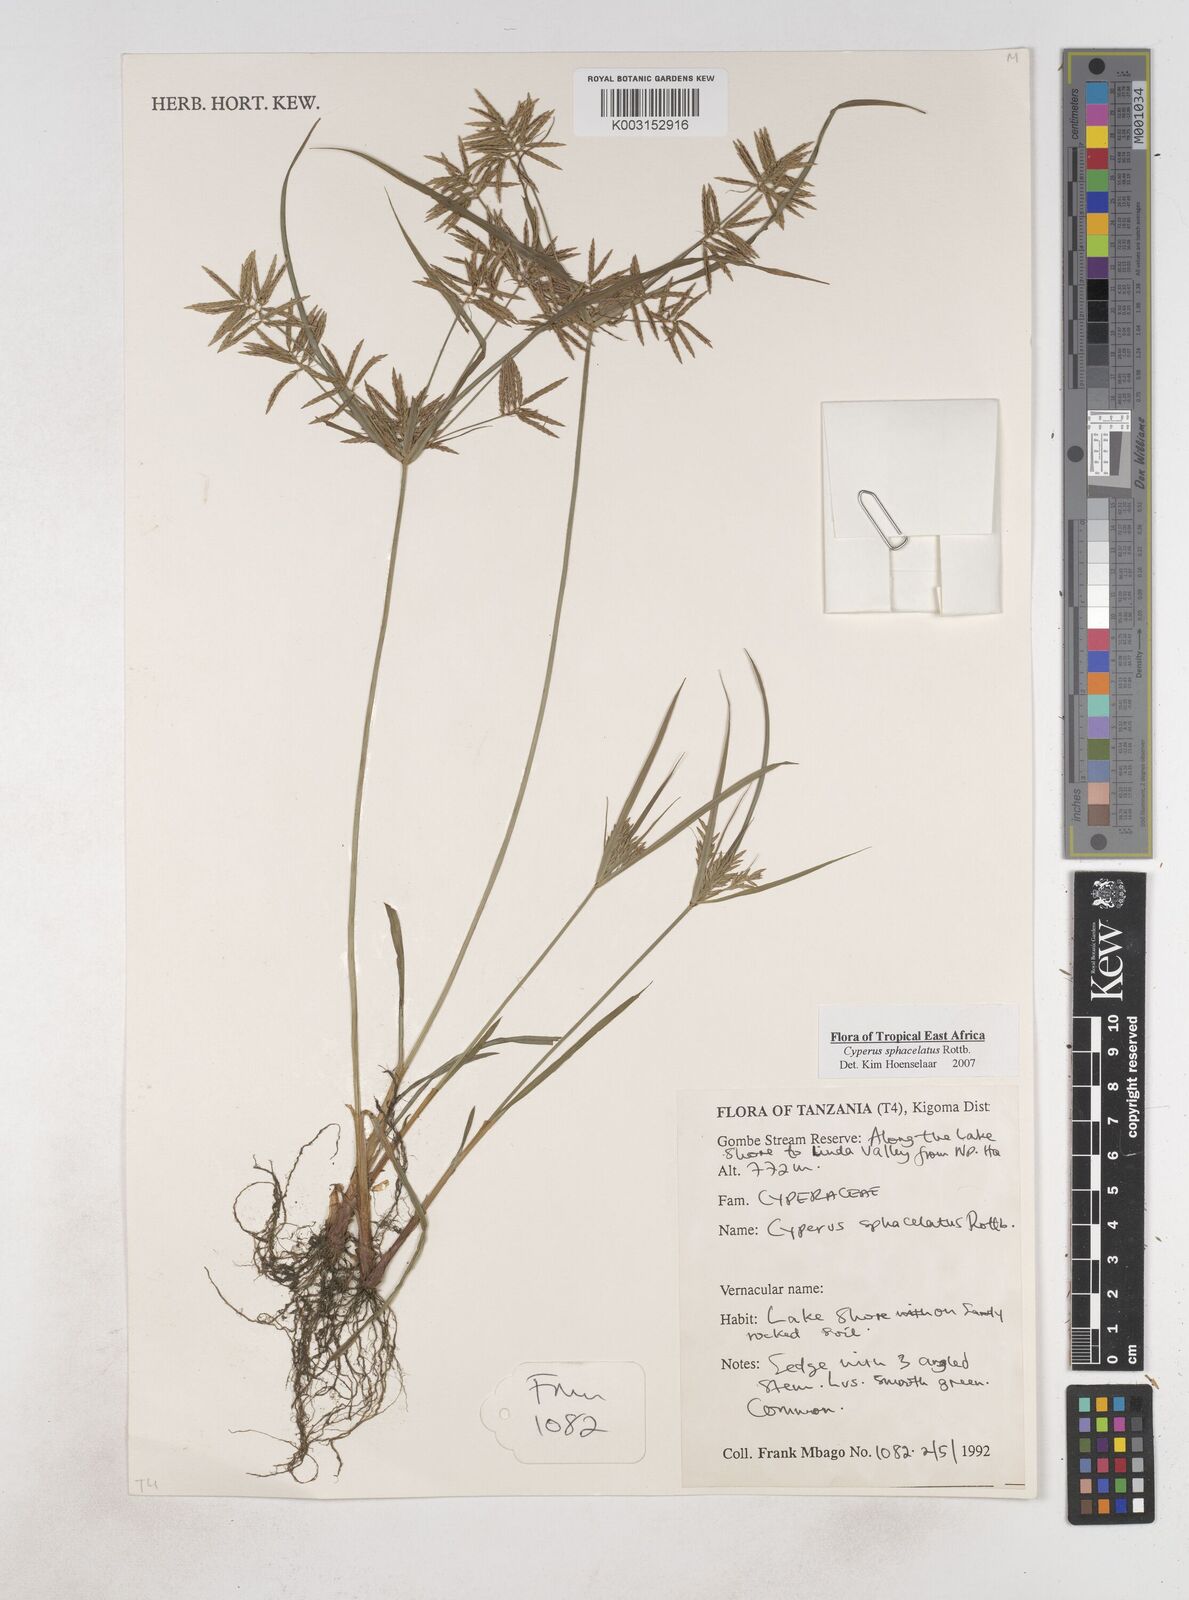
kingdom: Plantae
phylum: Tracheophyta
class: Liliopsida
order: Poales
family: Cyperaceae
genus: Cyperus
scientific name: Cyperus sphacelatus
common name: Roadside flatsedge
